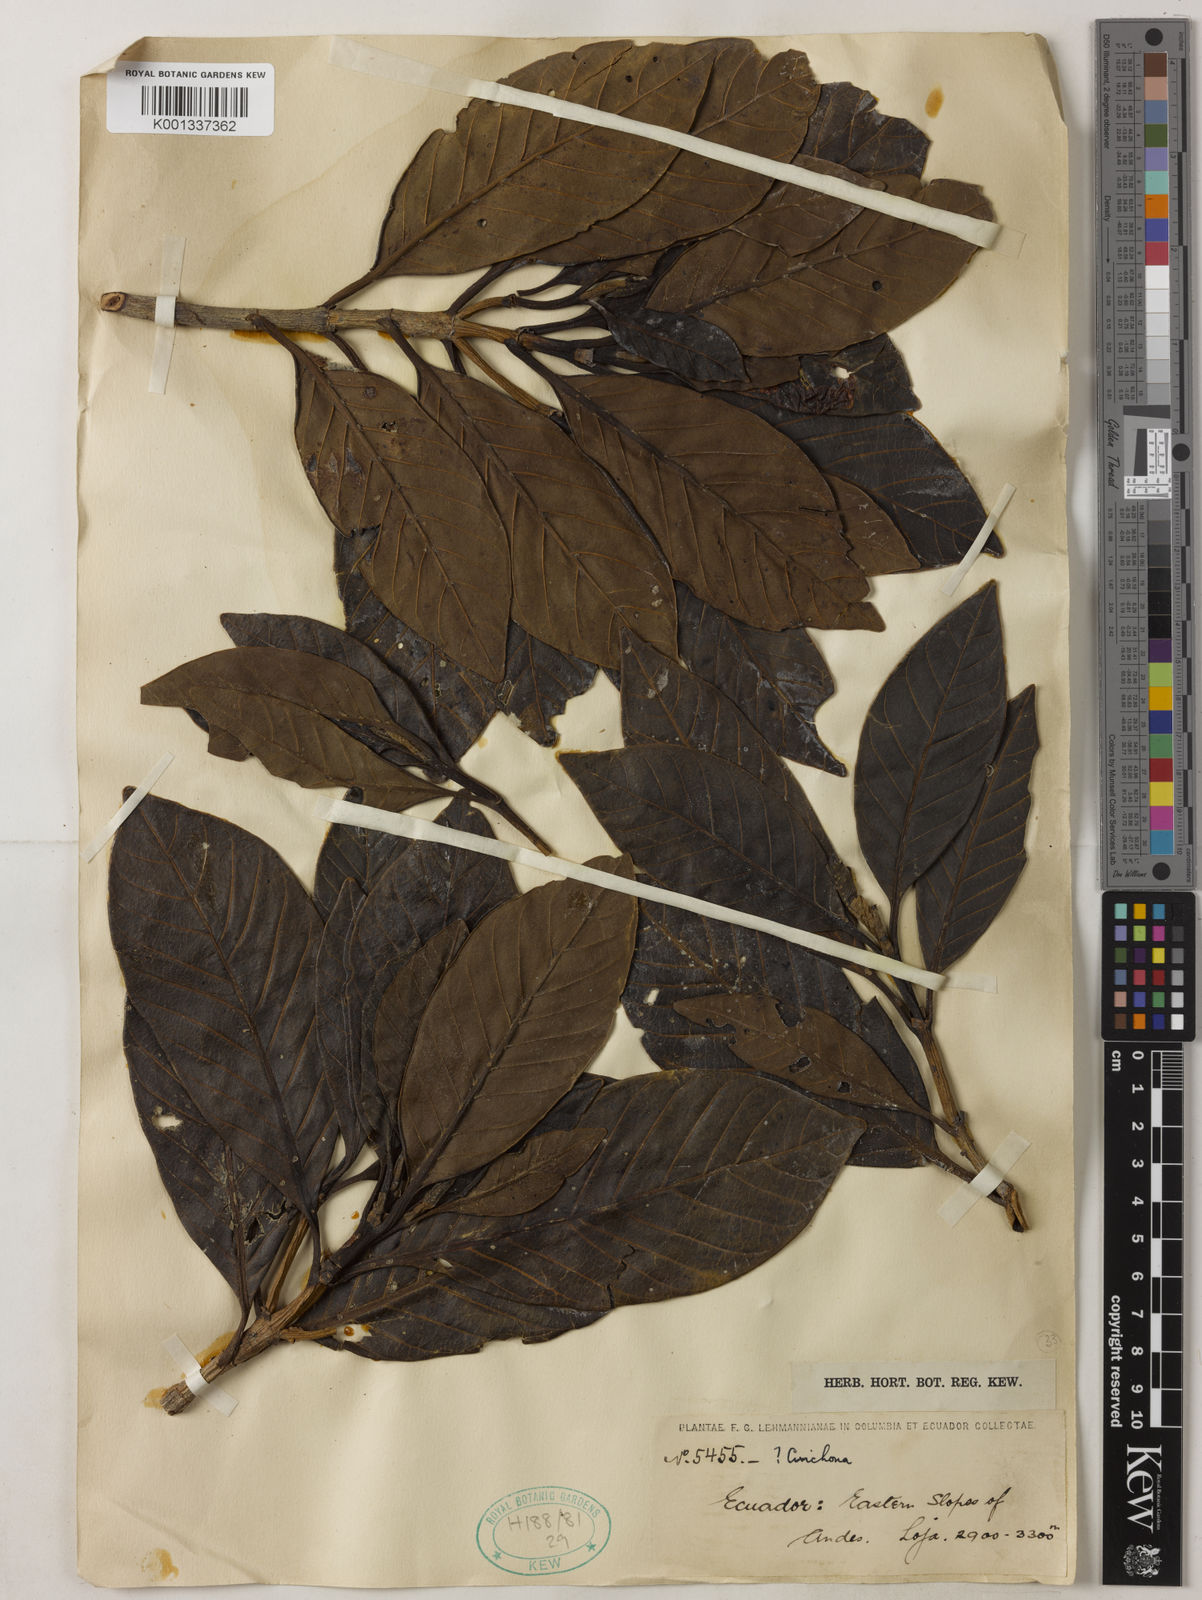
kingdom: Plantae
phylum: Tracheophyta
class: Magnoliopsida
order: Gentianales
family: Rubiaceae
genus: Cinchona
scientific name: Cinchona
